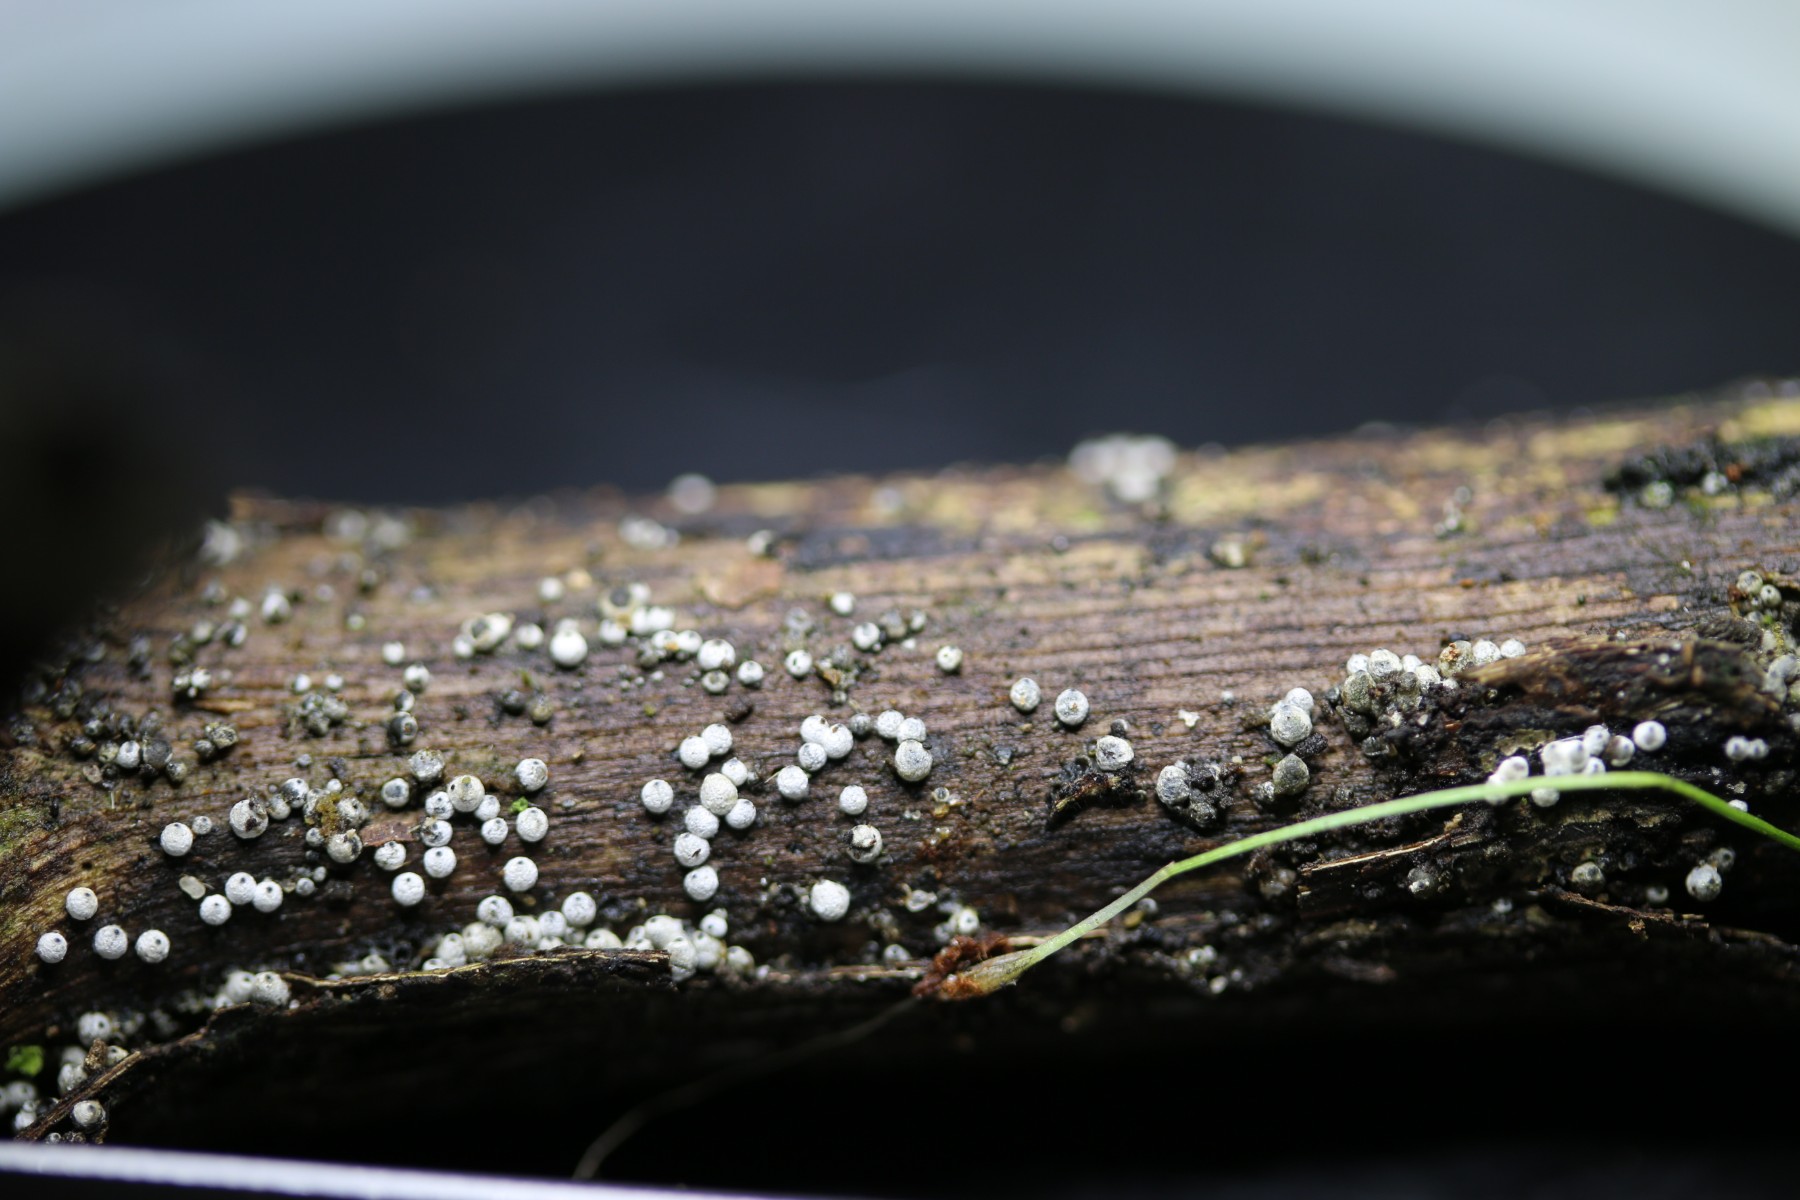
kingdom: Fungi
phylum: Ascomycota
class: Sordariomycetes
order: Sordariales
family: Lasiosphaeriaceae
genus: Lasiosphaeria
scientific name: Lasiosphaeria ovina
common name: fåre-kernesvamp
